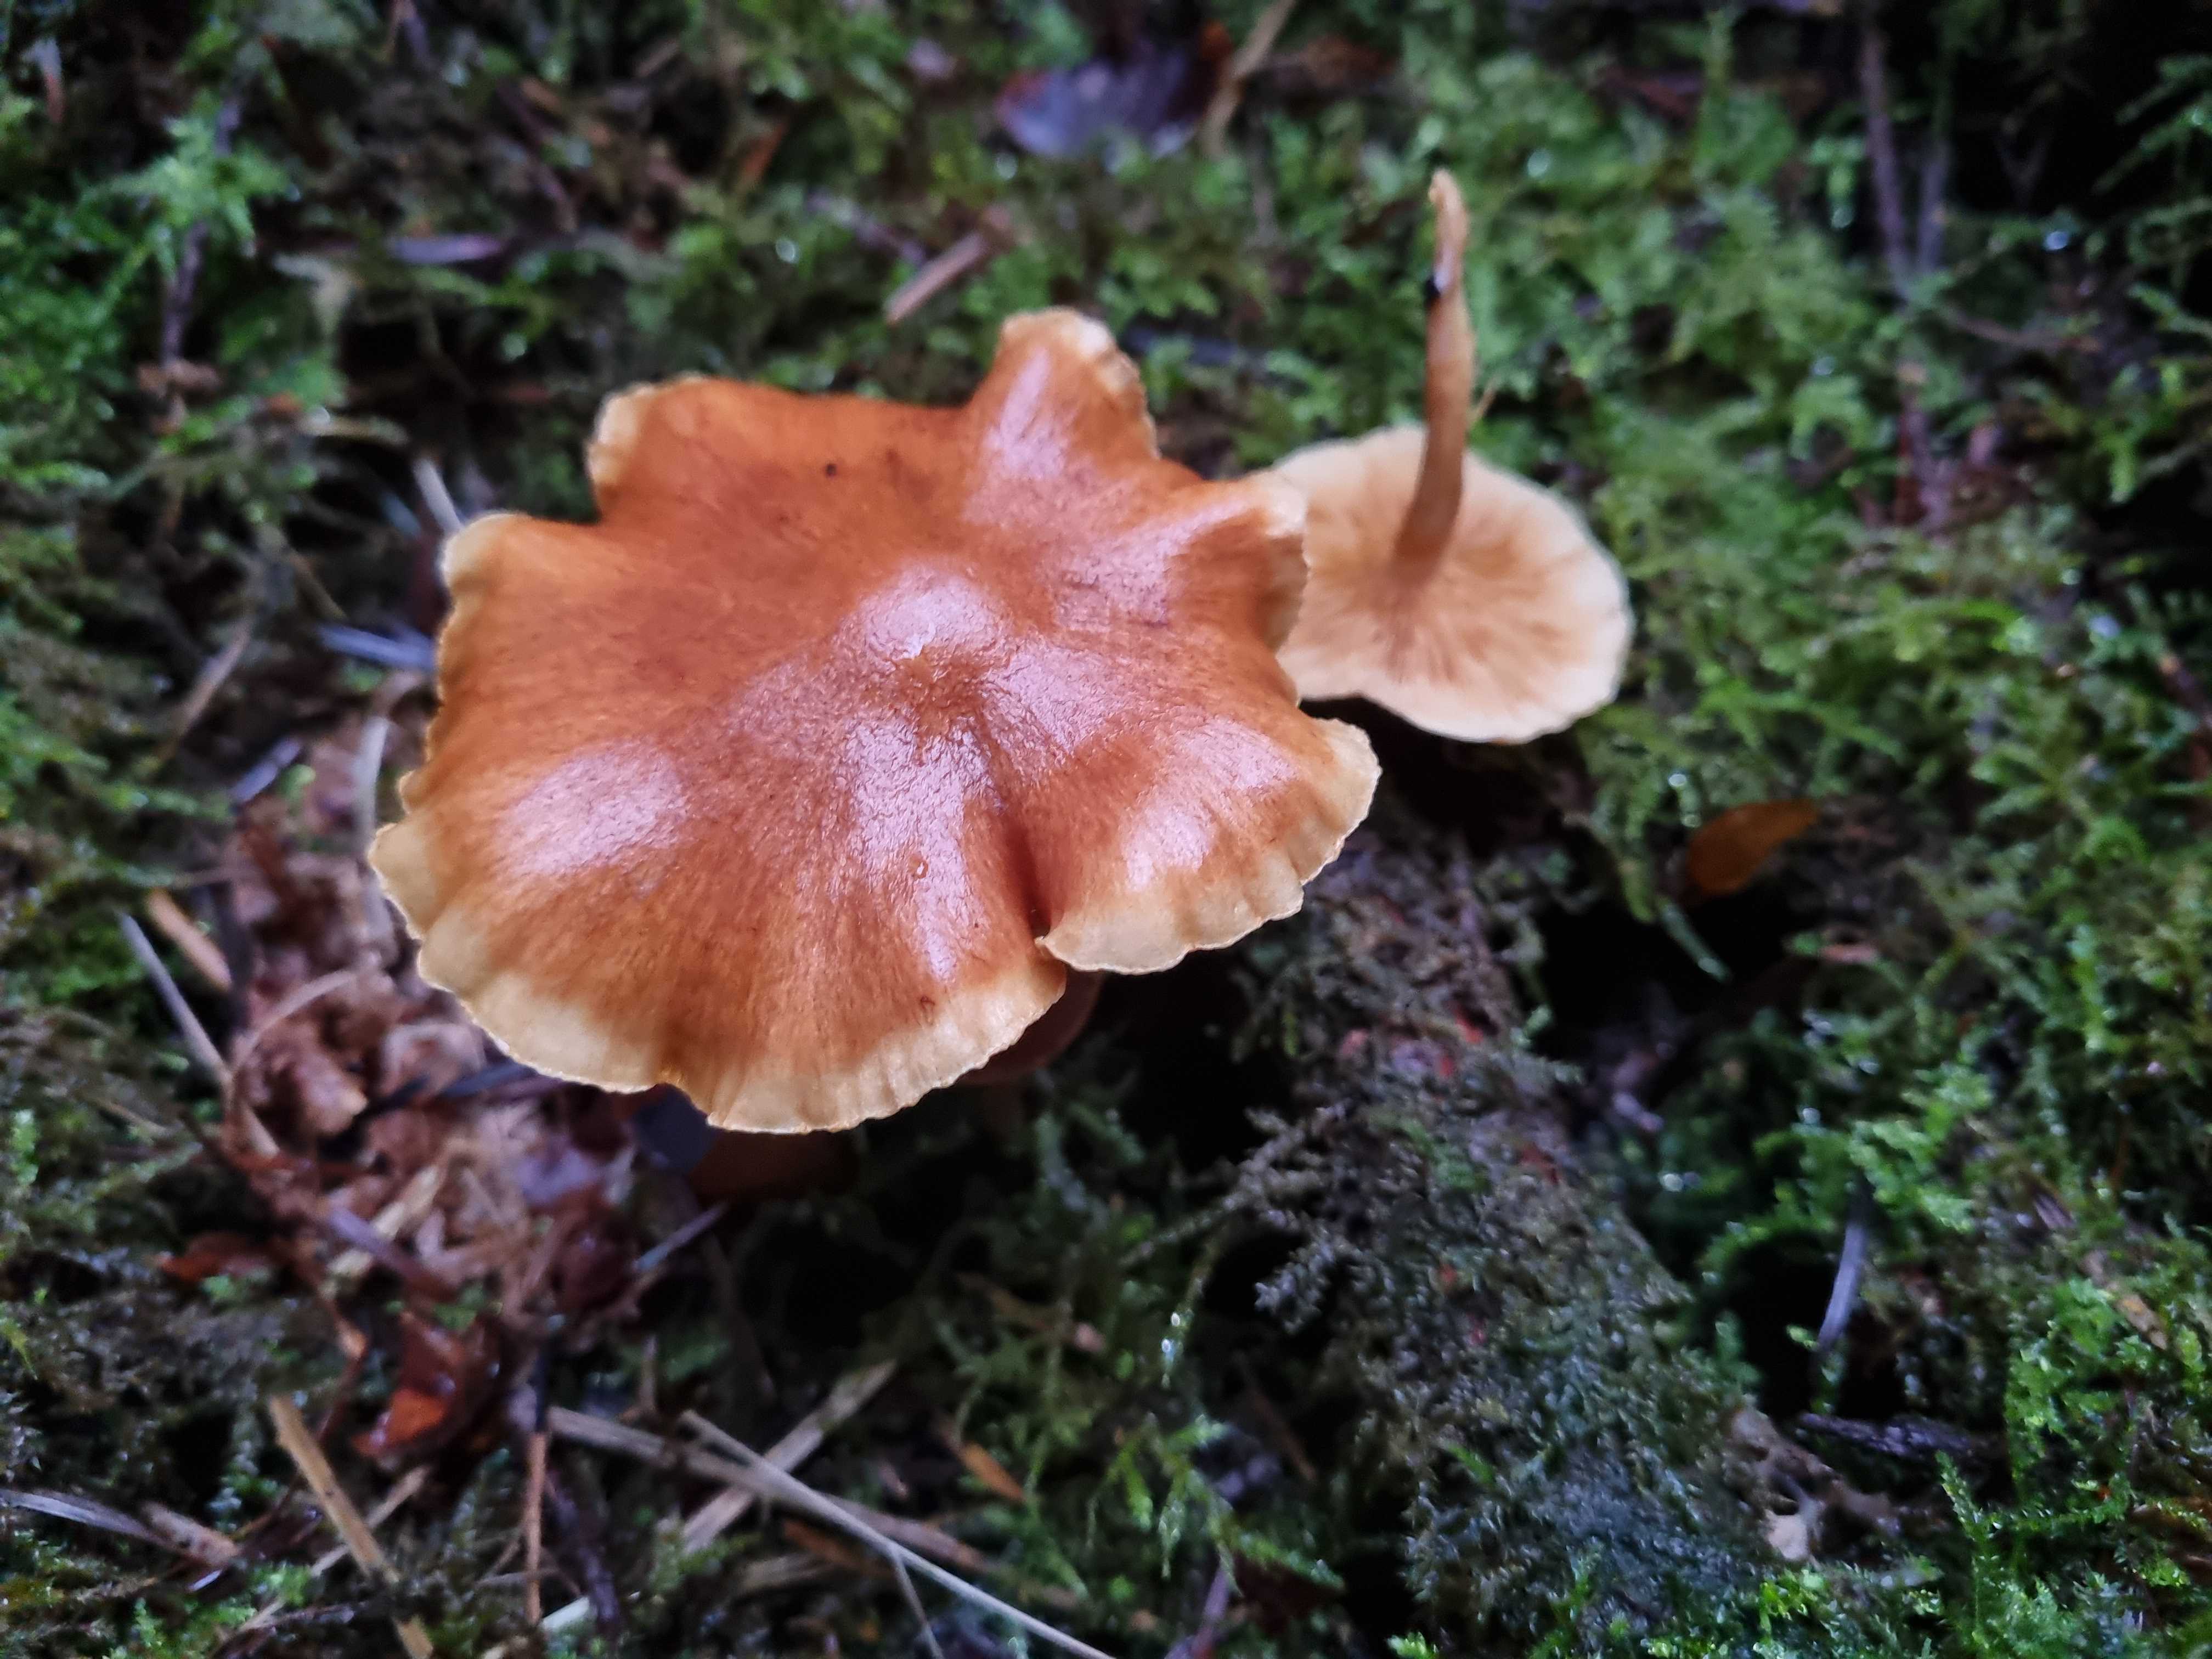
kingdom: Fungi
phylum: Basidiomycota
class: Agaricomycetes
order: Agaricales
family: Hymenogastraceae
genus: Gymnopilus
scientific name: Gymnopilus penetrans
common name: plettet flammehat
